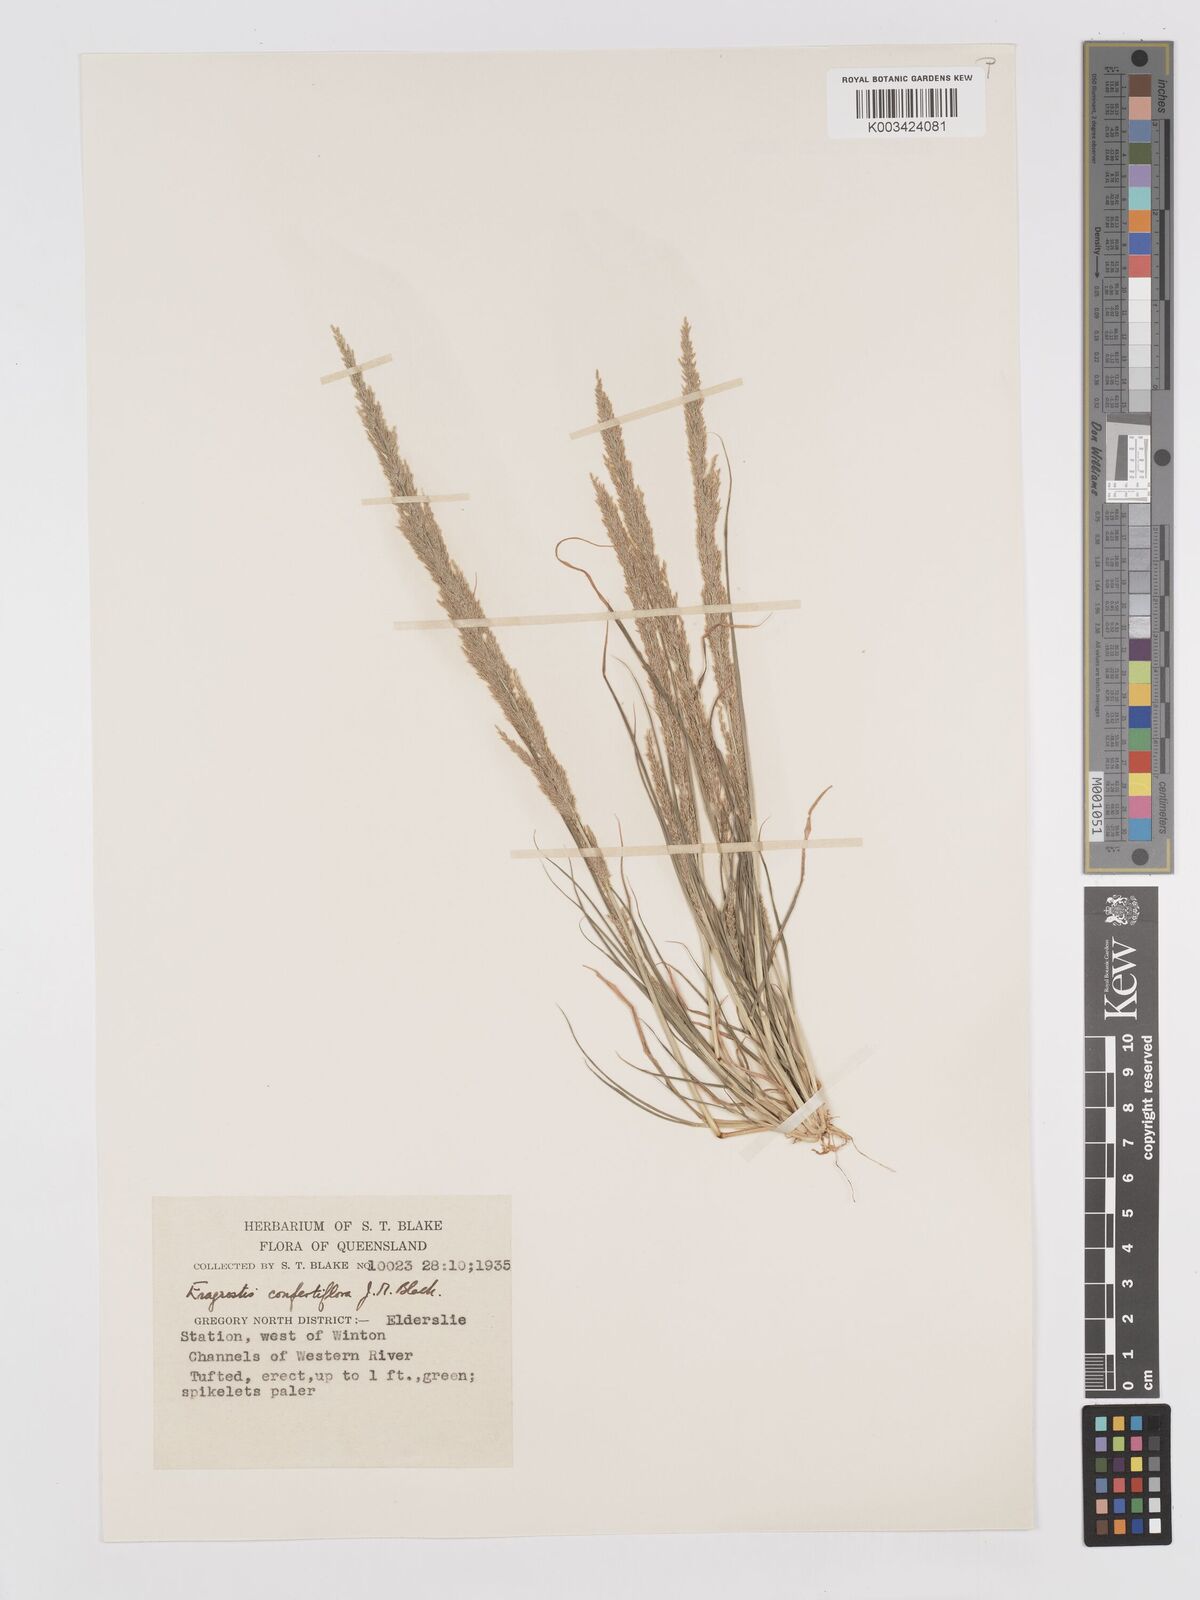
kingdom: Plantae
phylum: Tracheophyta
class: Liliopsida
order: Poales
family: Poaceae
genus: Eragrostis
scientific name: Eragrostis confertiflora
